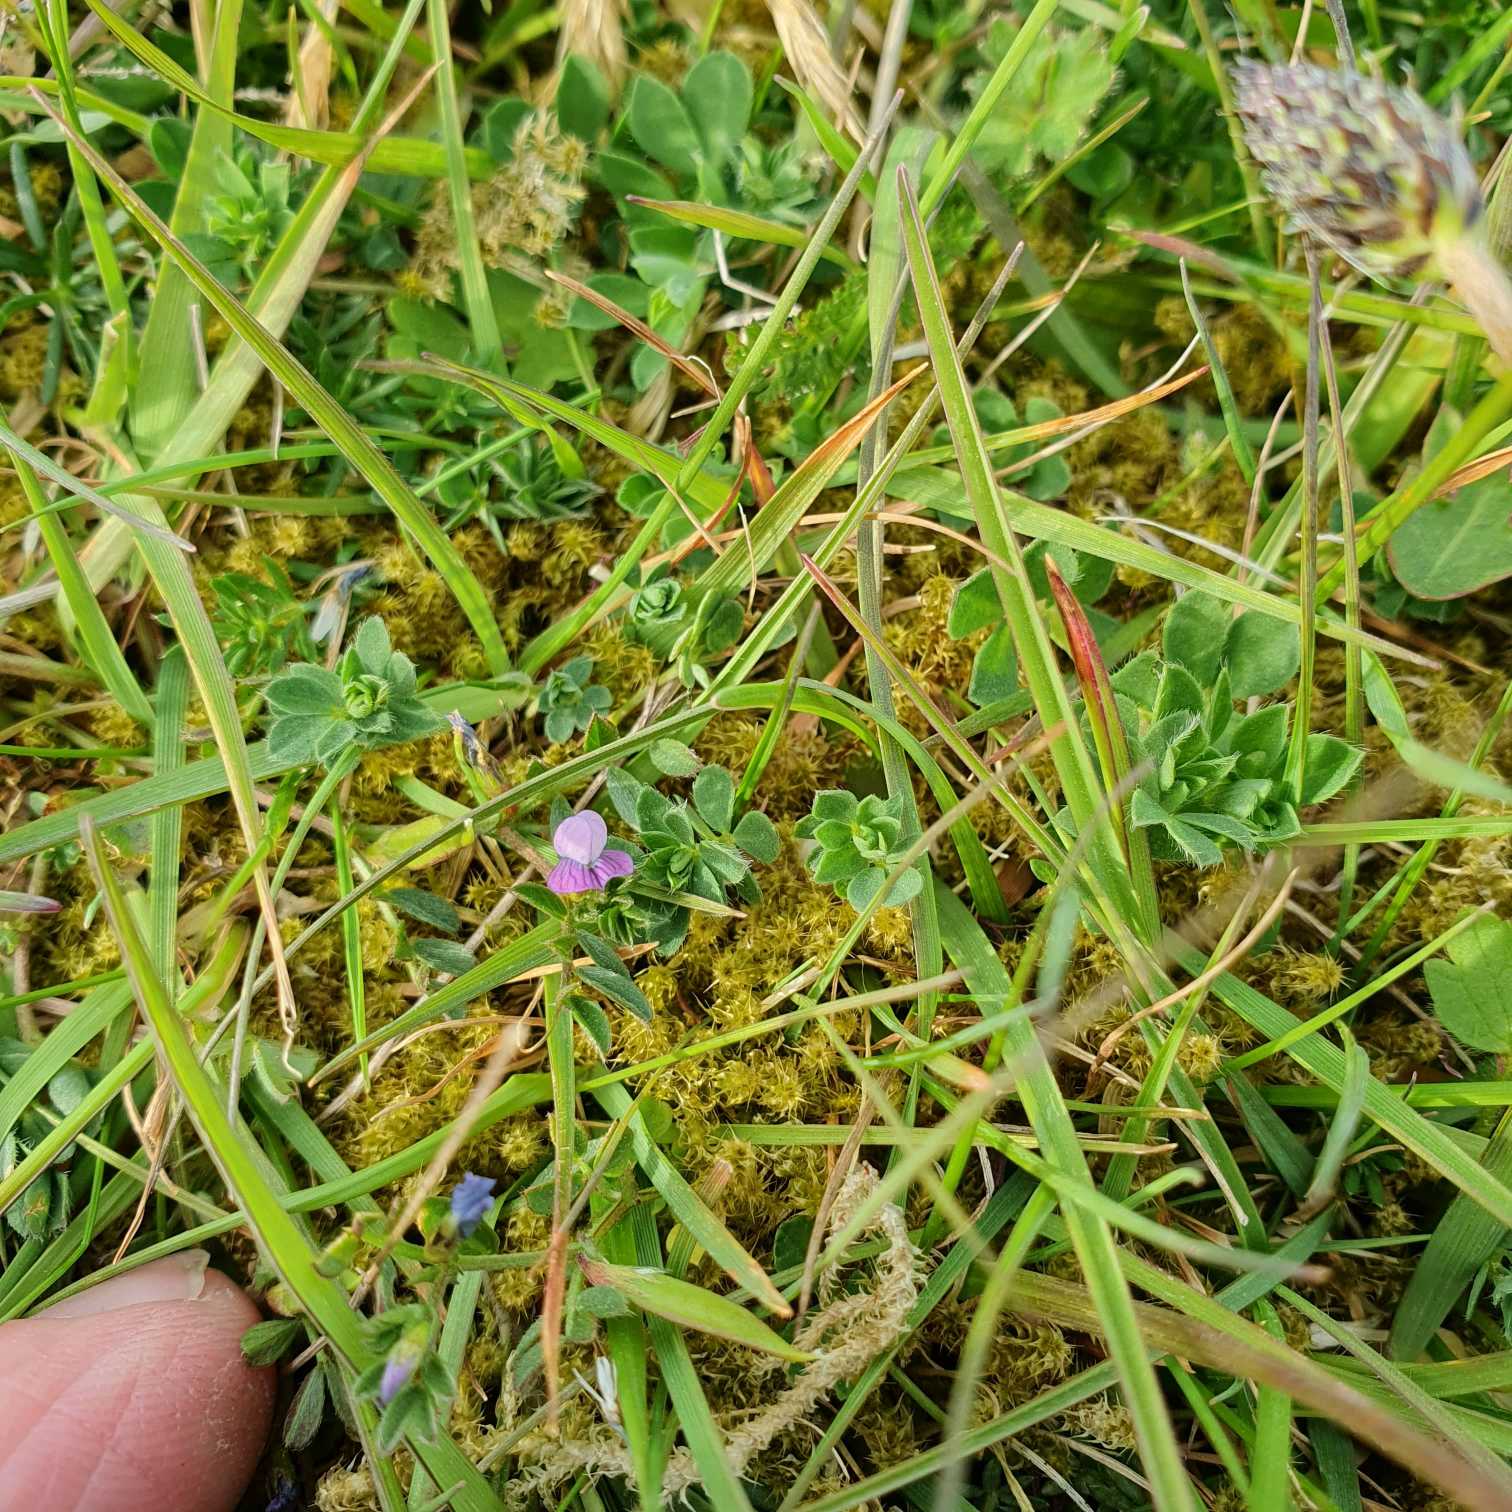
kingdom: Plantae
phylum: Tracheophyta
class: Magnoliopsida
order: Fabales
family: Fabaceae
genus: Vicia
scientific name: Vicia lathyroides
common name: Vår-vikke
